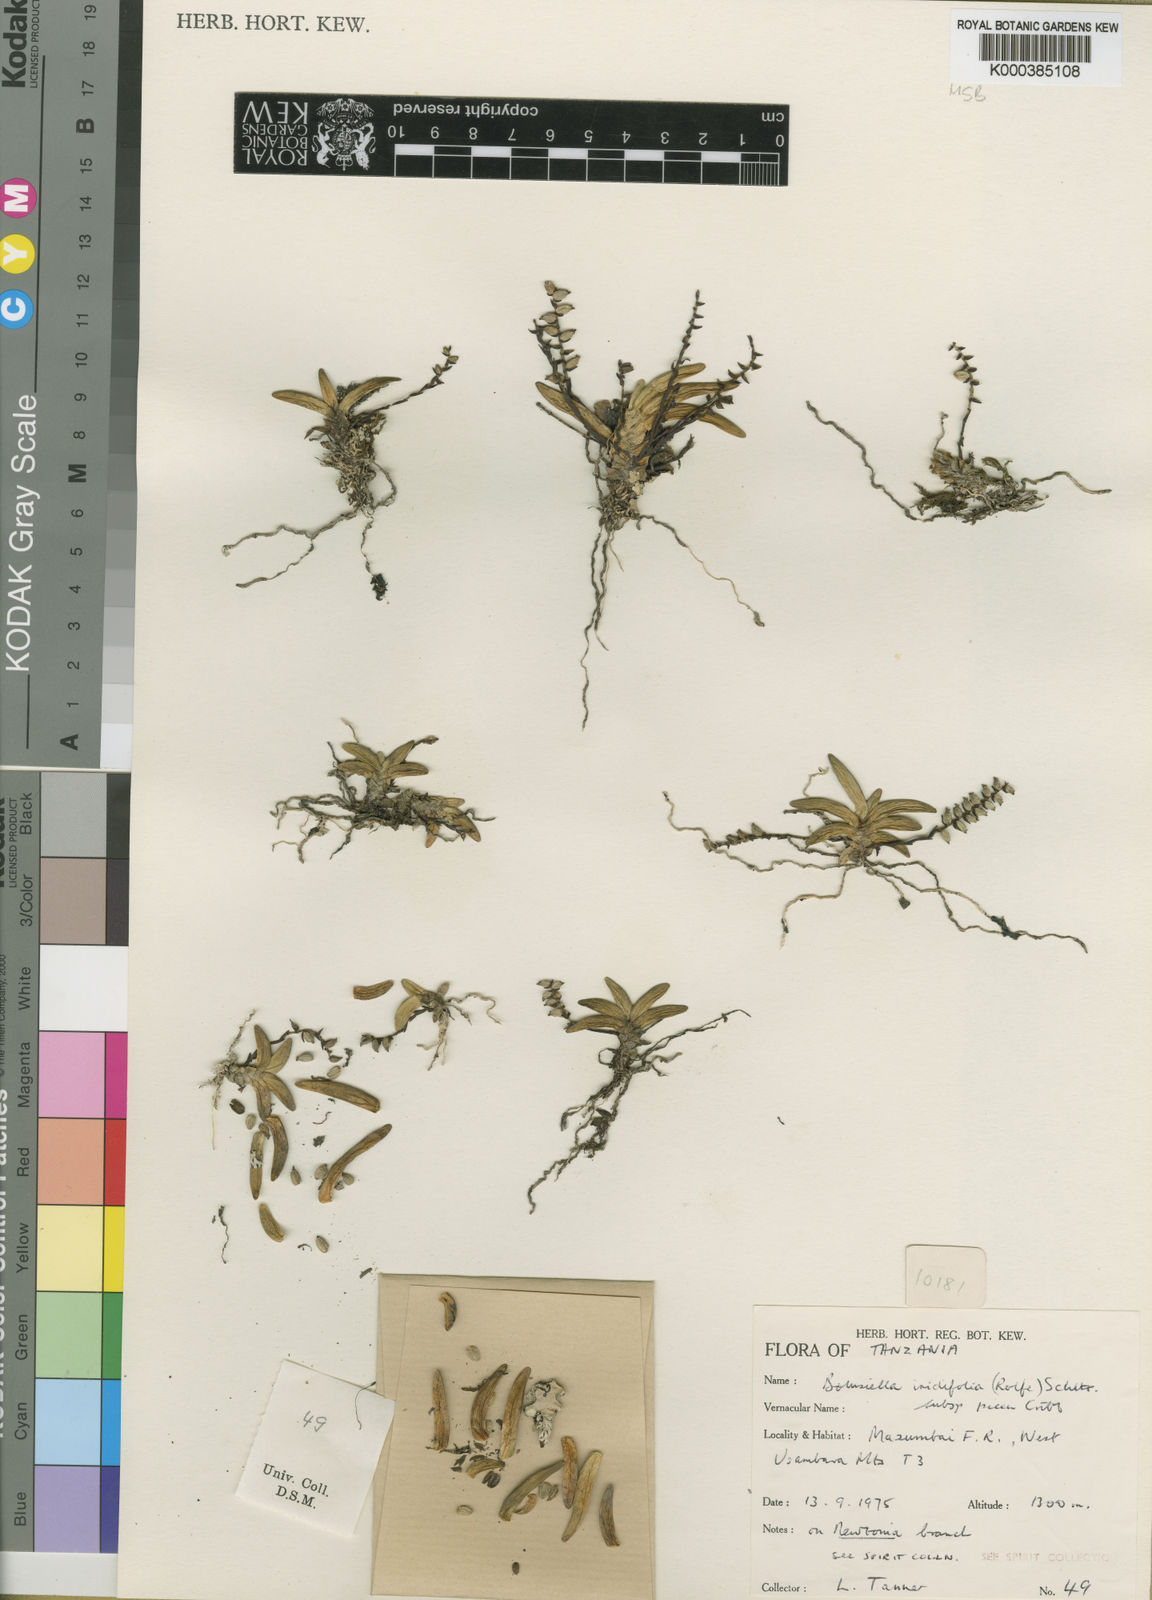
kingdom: Plantae
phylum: Tracheophyta
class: Liliopsida
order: Asparagales
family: Orchidaceae
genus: Bolusiella
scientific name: Bolusiella iridifolia
